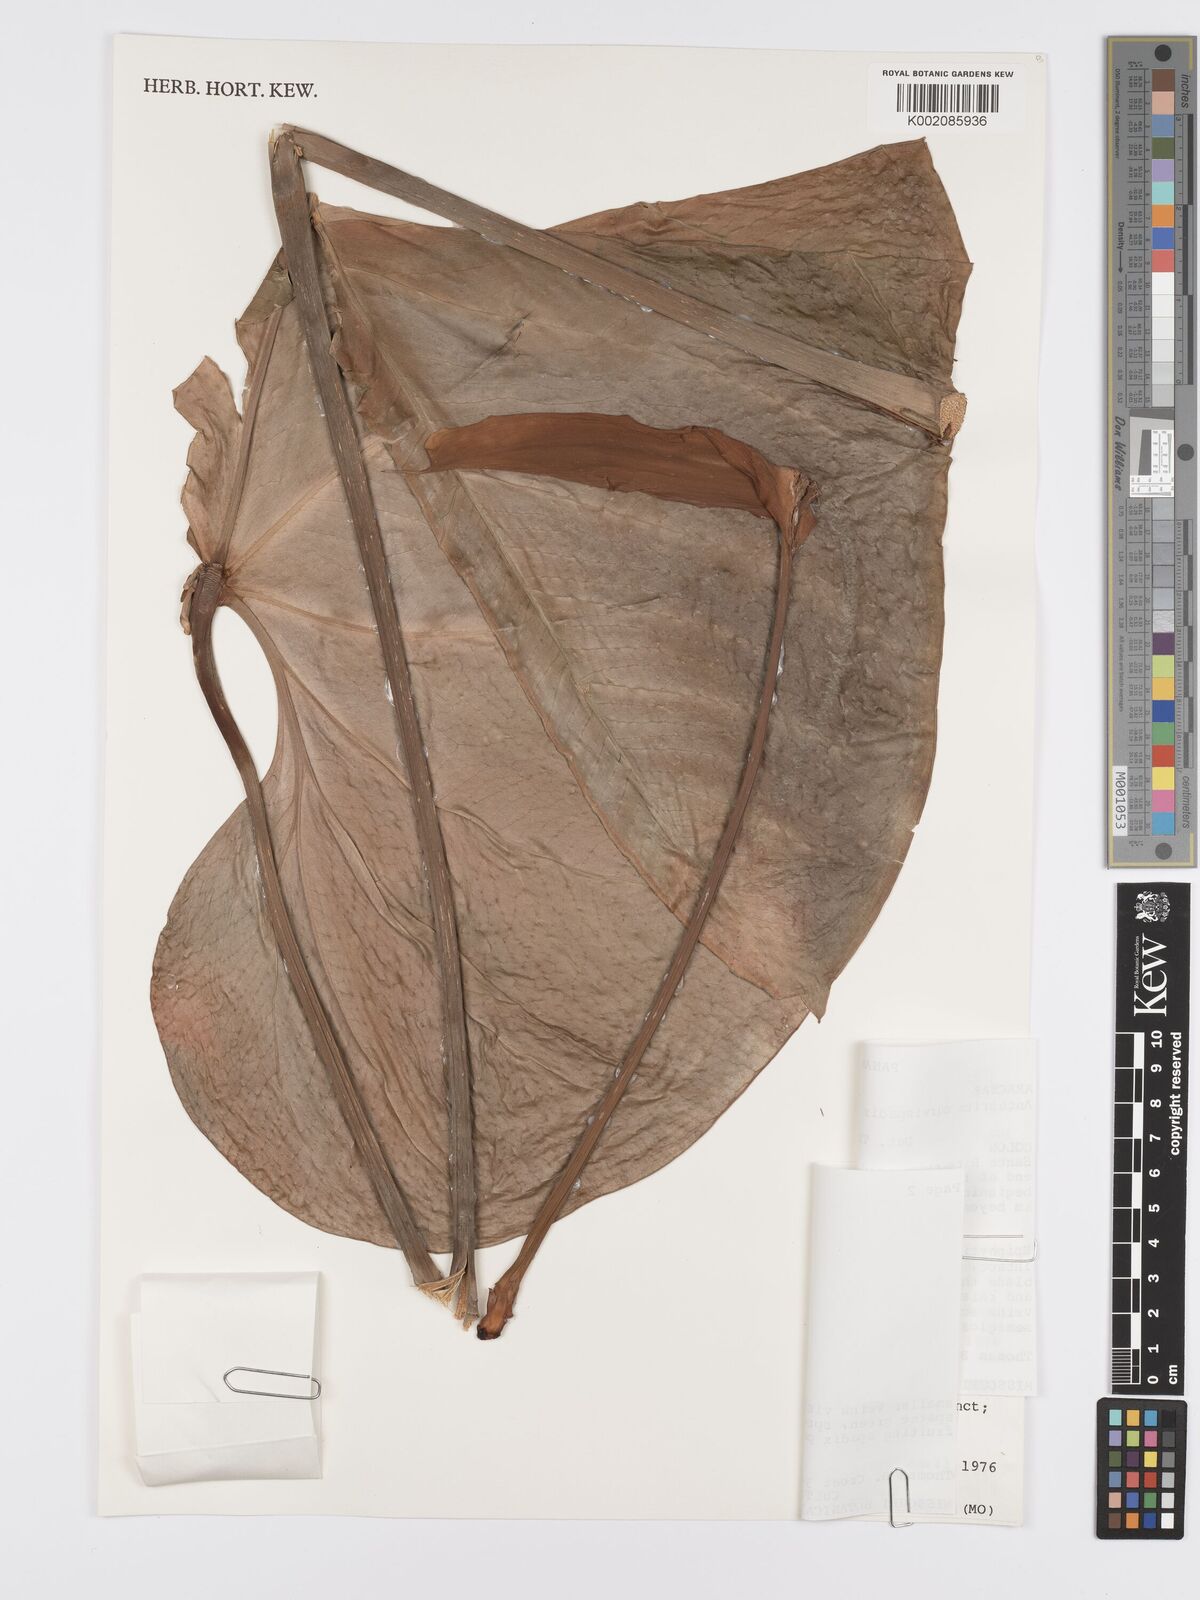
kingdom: Plantae
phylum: Tracheophyta
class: Liliopsida
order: Alismatales
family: Araceae
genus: Anthurium
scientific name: Anthurium curvispadix
